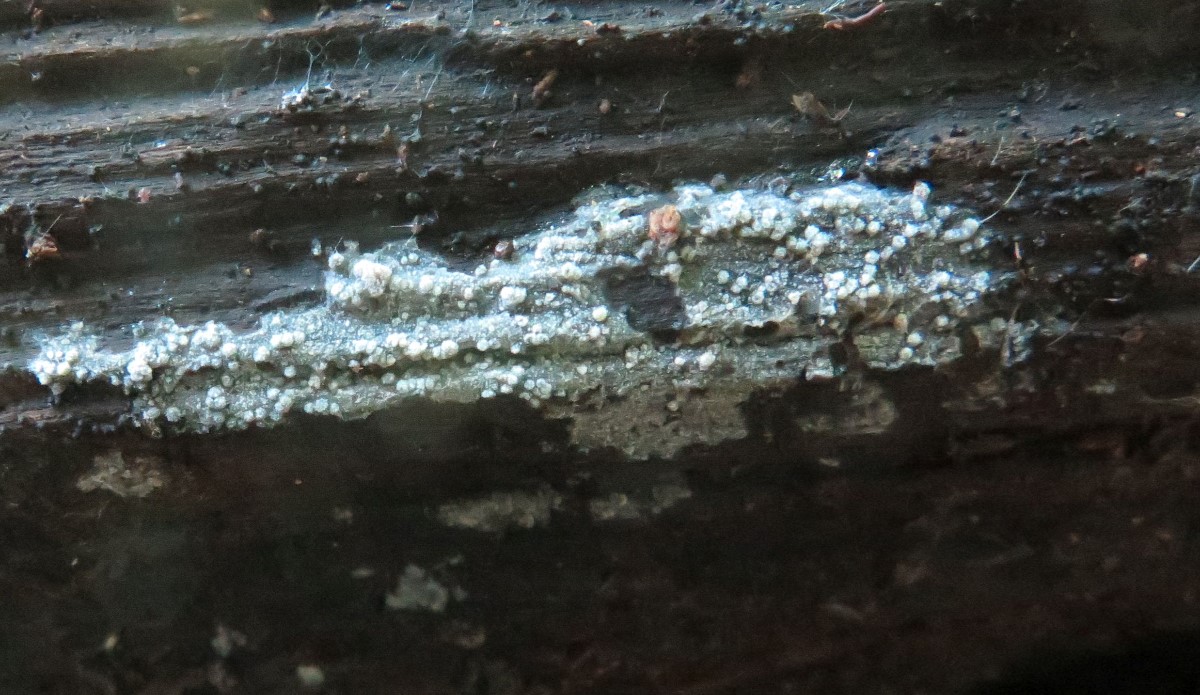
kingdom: Fungi
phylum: Basidiomycota
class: Agaricomycetes
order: Polyporales
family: Meruliaceae
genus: Scopuloides
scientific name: Scopuloides rimosa
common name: dughinde
